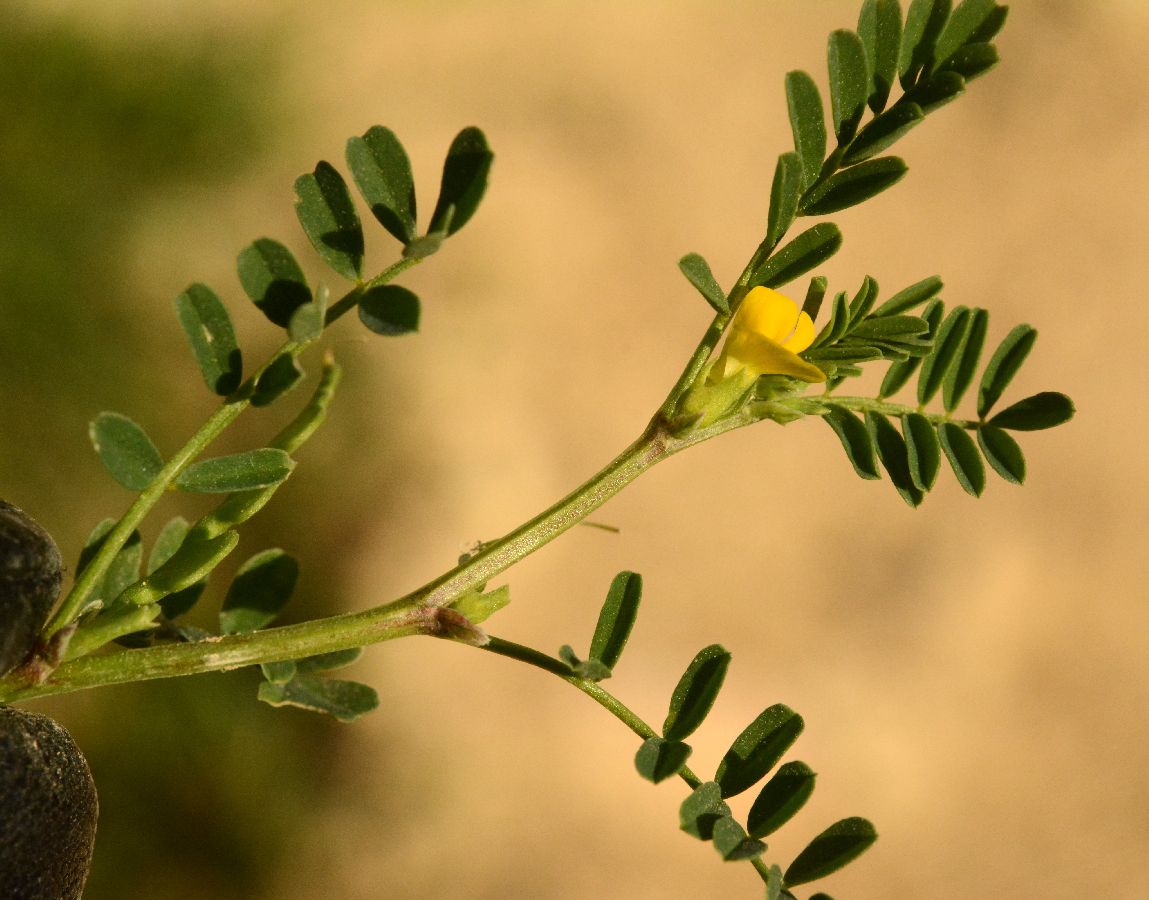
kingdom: Plantae
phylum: Tracheophyta
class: Magnoliopsida
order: Fabales
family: Fabaceae
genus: Hippocrepis
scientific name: Hippocrepis ciliata
